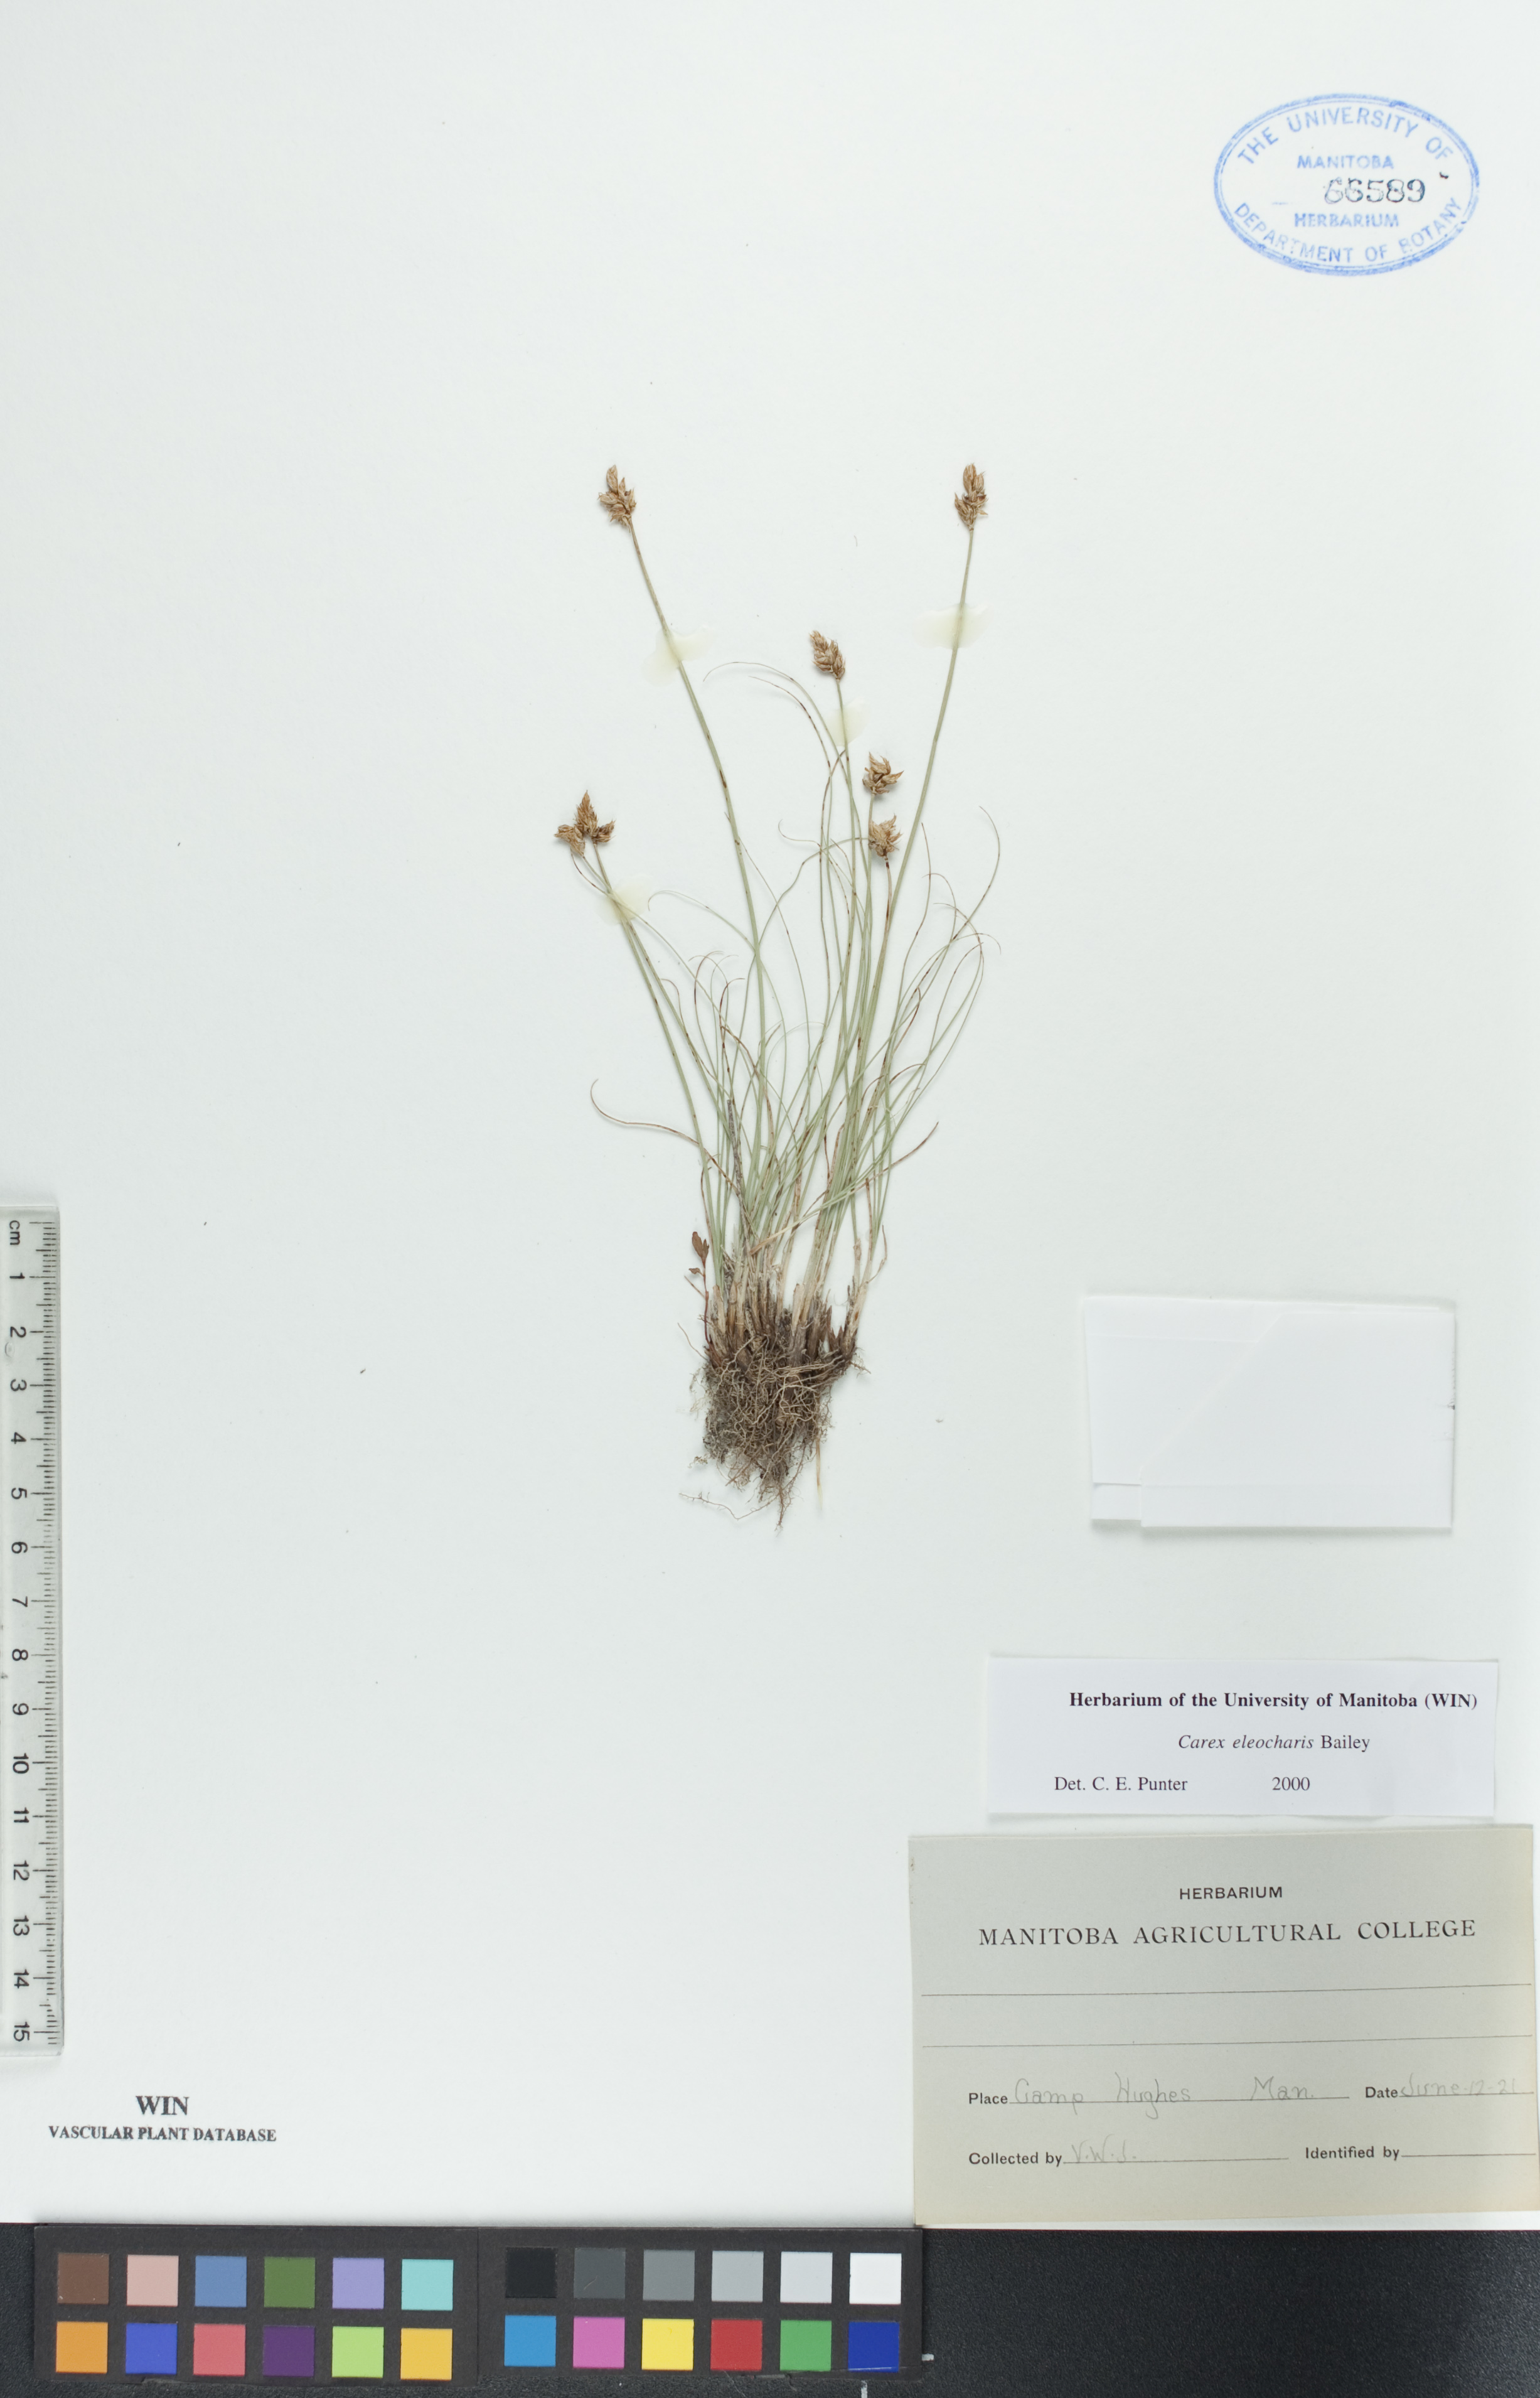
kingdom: Plantae
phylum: Tracheophyta
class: Liliopsida
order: Poales
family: Cyperaceae
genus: Carex
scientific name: Carex duriuscula
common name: Involute-leaved sedge
